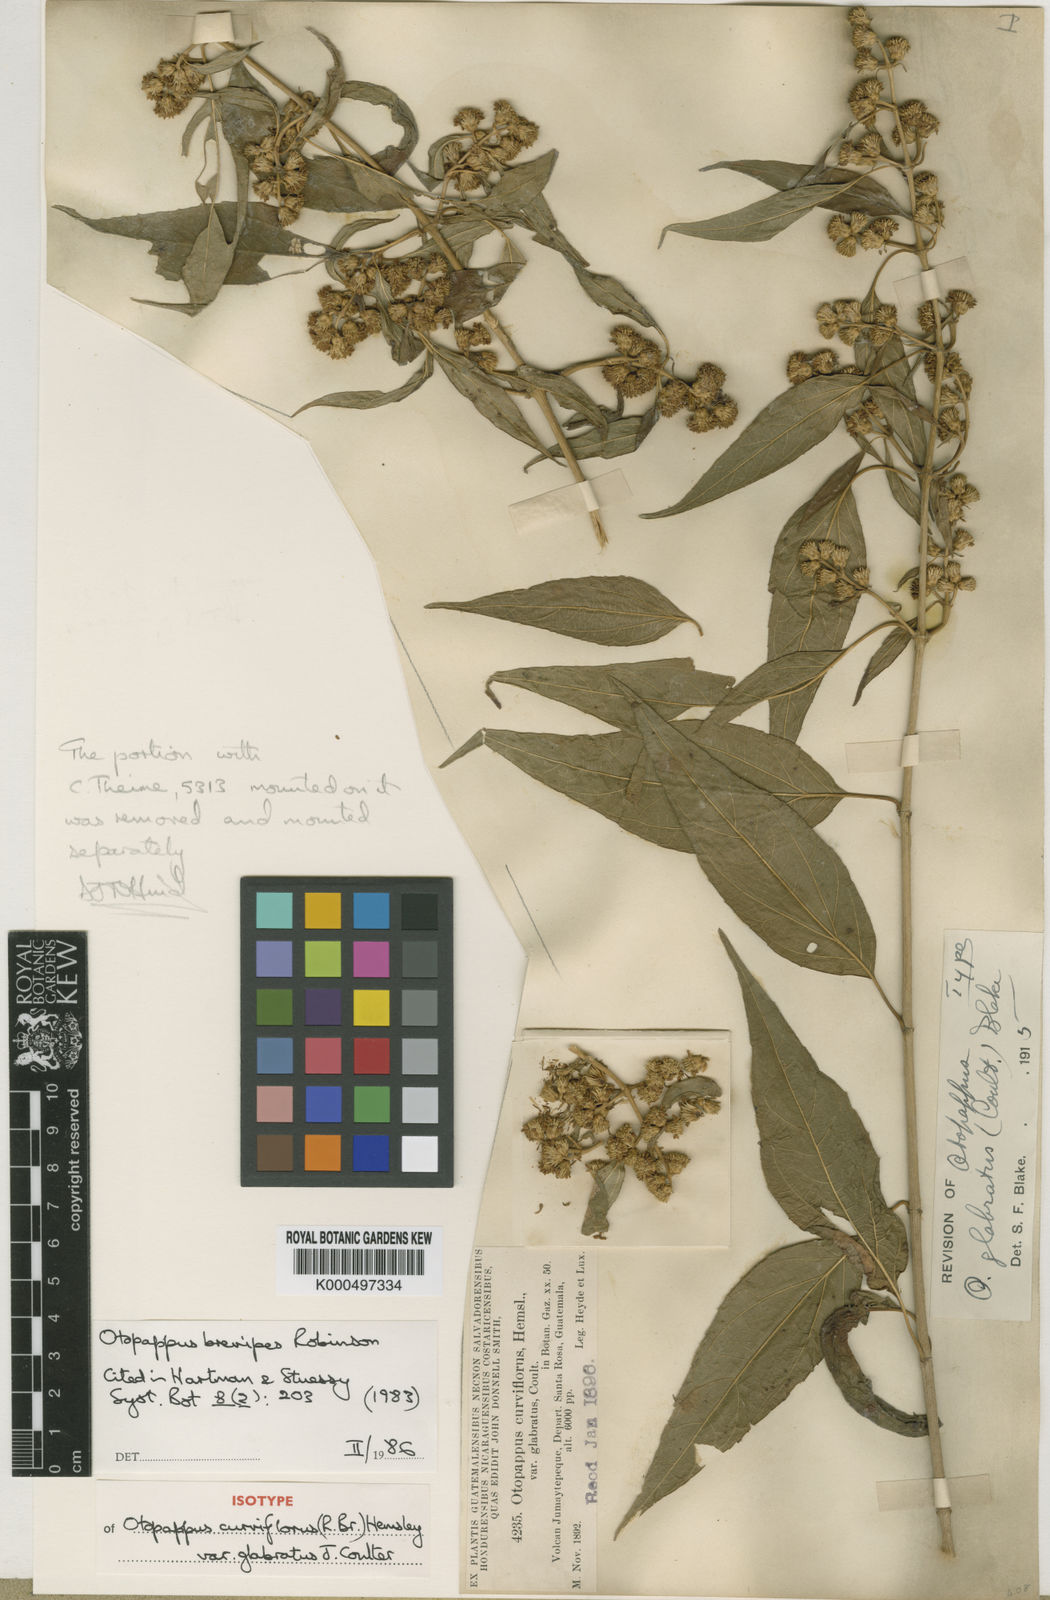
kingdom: Plantae
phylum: Tracheophyta
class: Magnoliopsida
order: Asterales
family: Asteraceae
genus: Otopappus
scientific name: Otopappus brevipes
